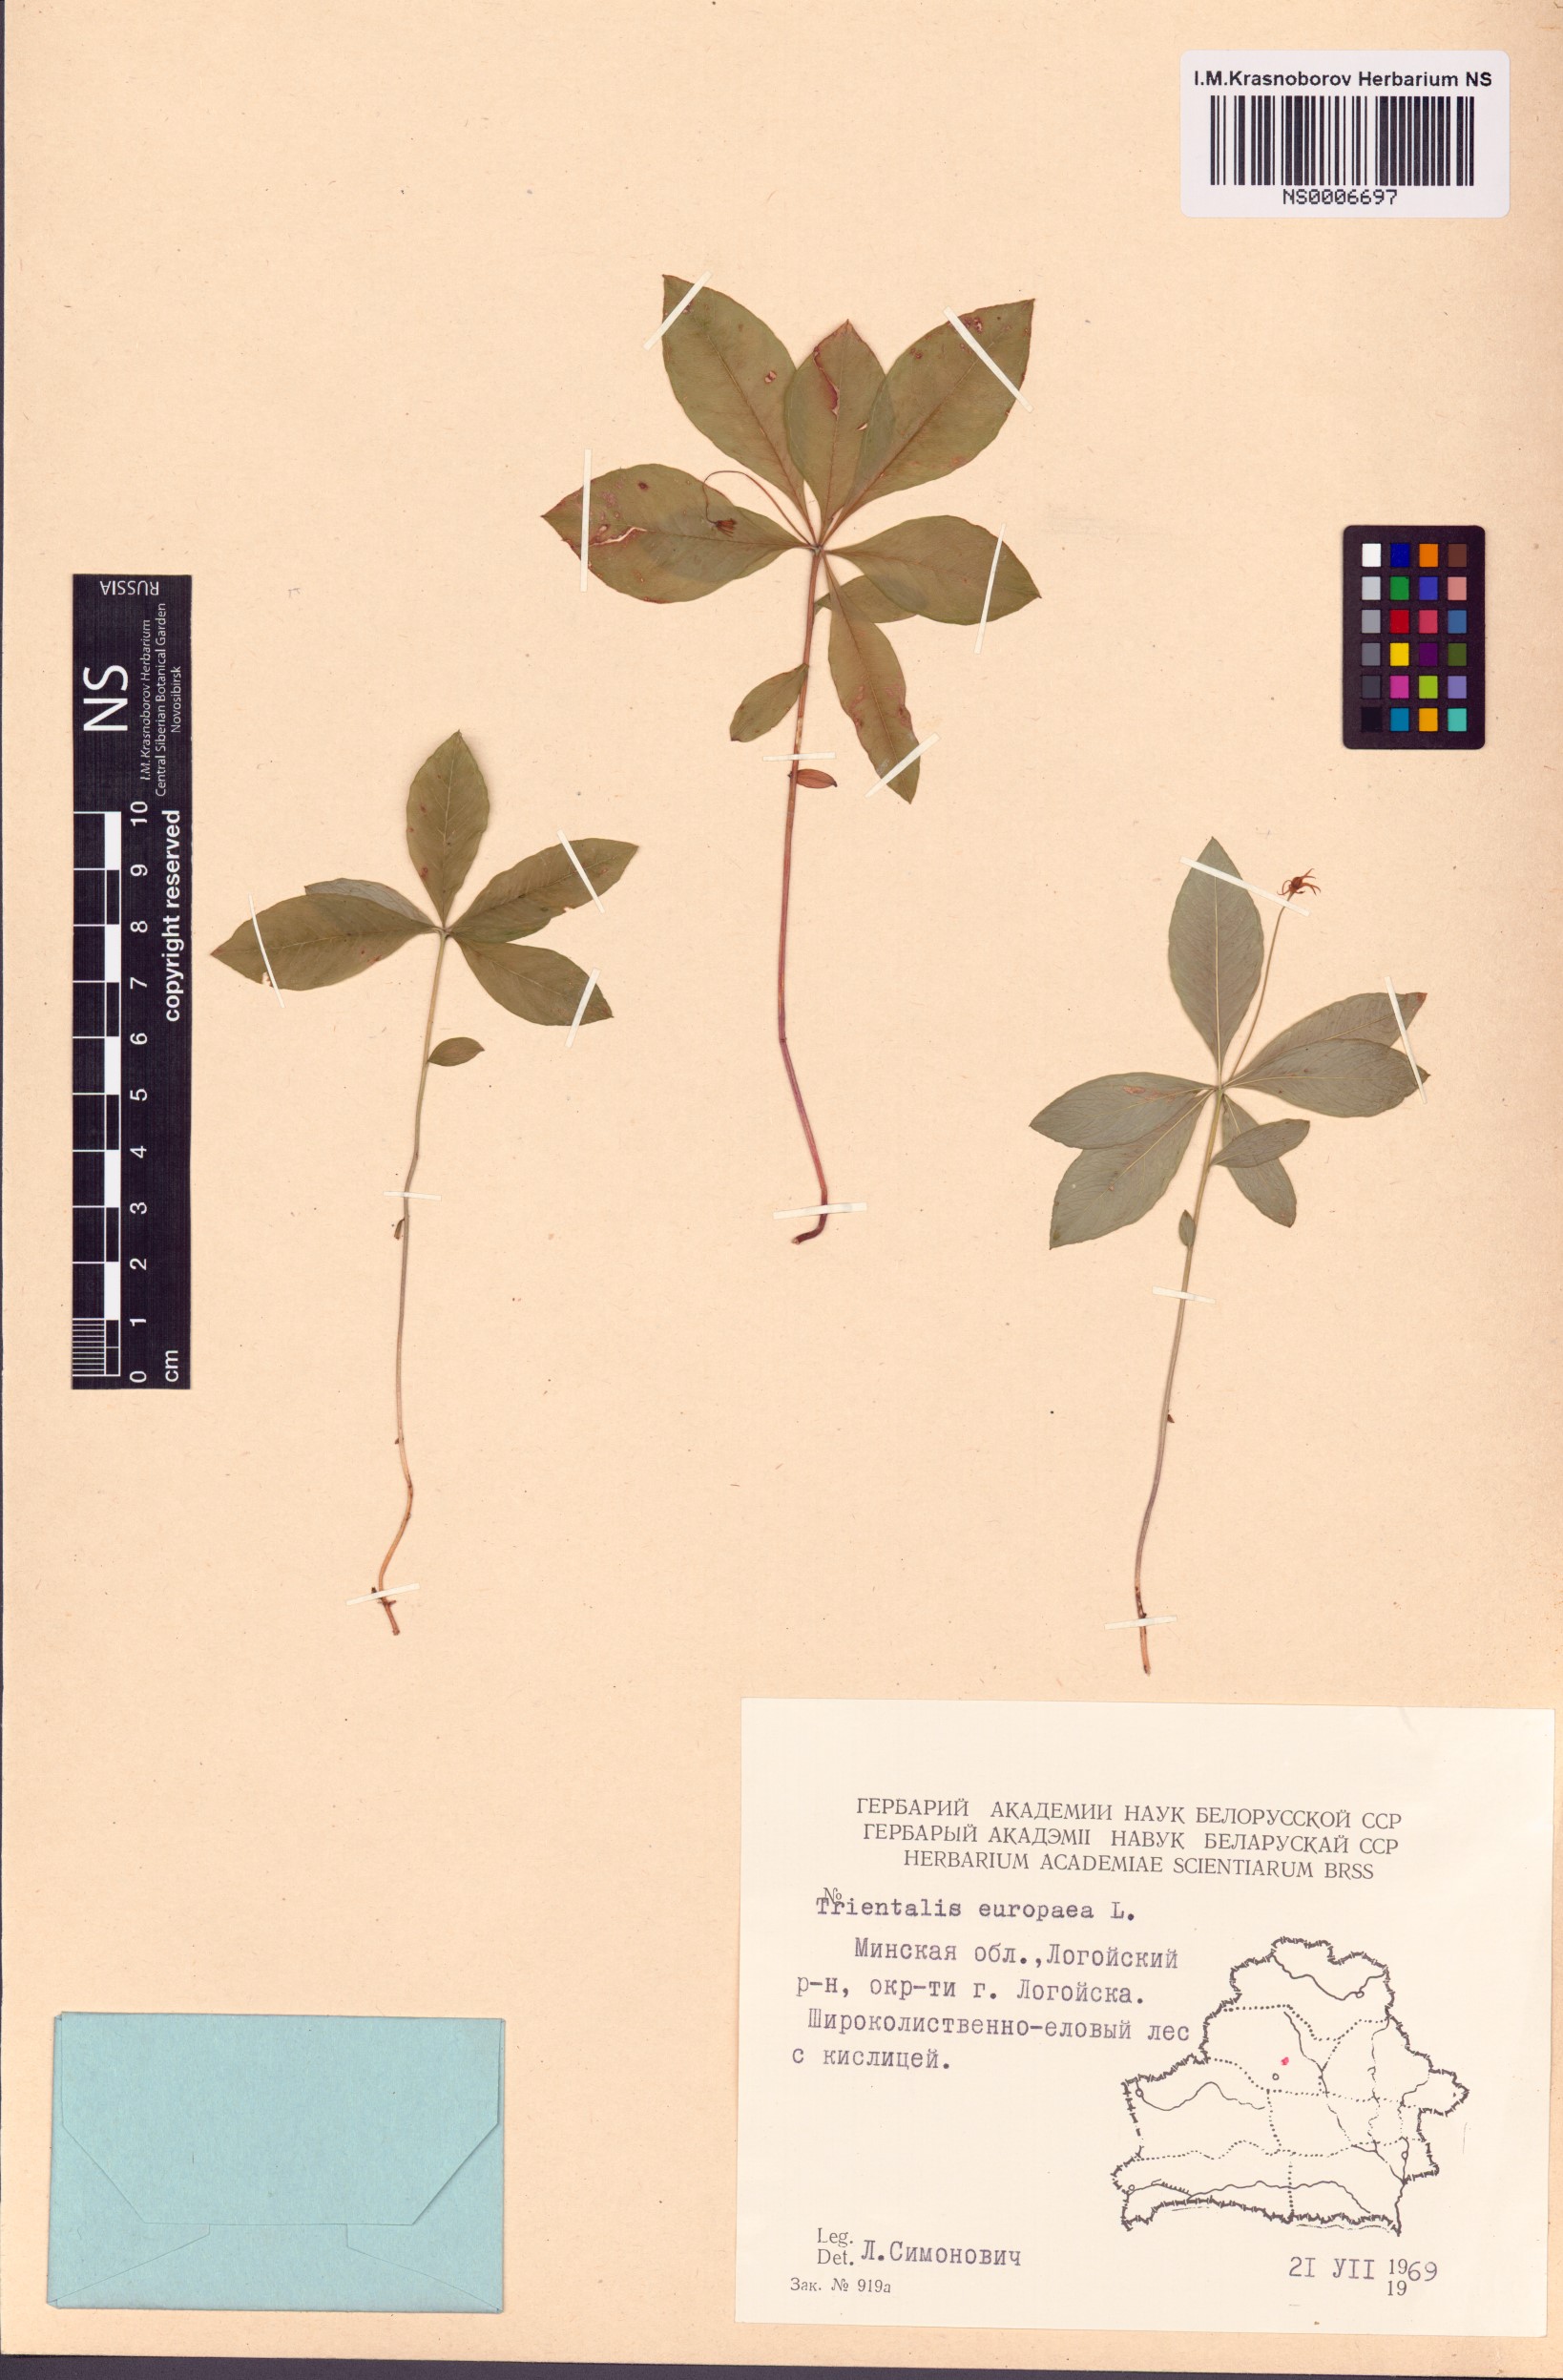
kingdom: Plantae
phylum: Tracheophyta
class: Magnoliopsida
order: Ericales
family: Primulaceae
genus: Lysimachia
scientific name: Lysimachia europaea
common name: Arctic starflower
